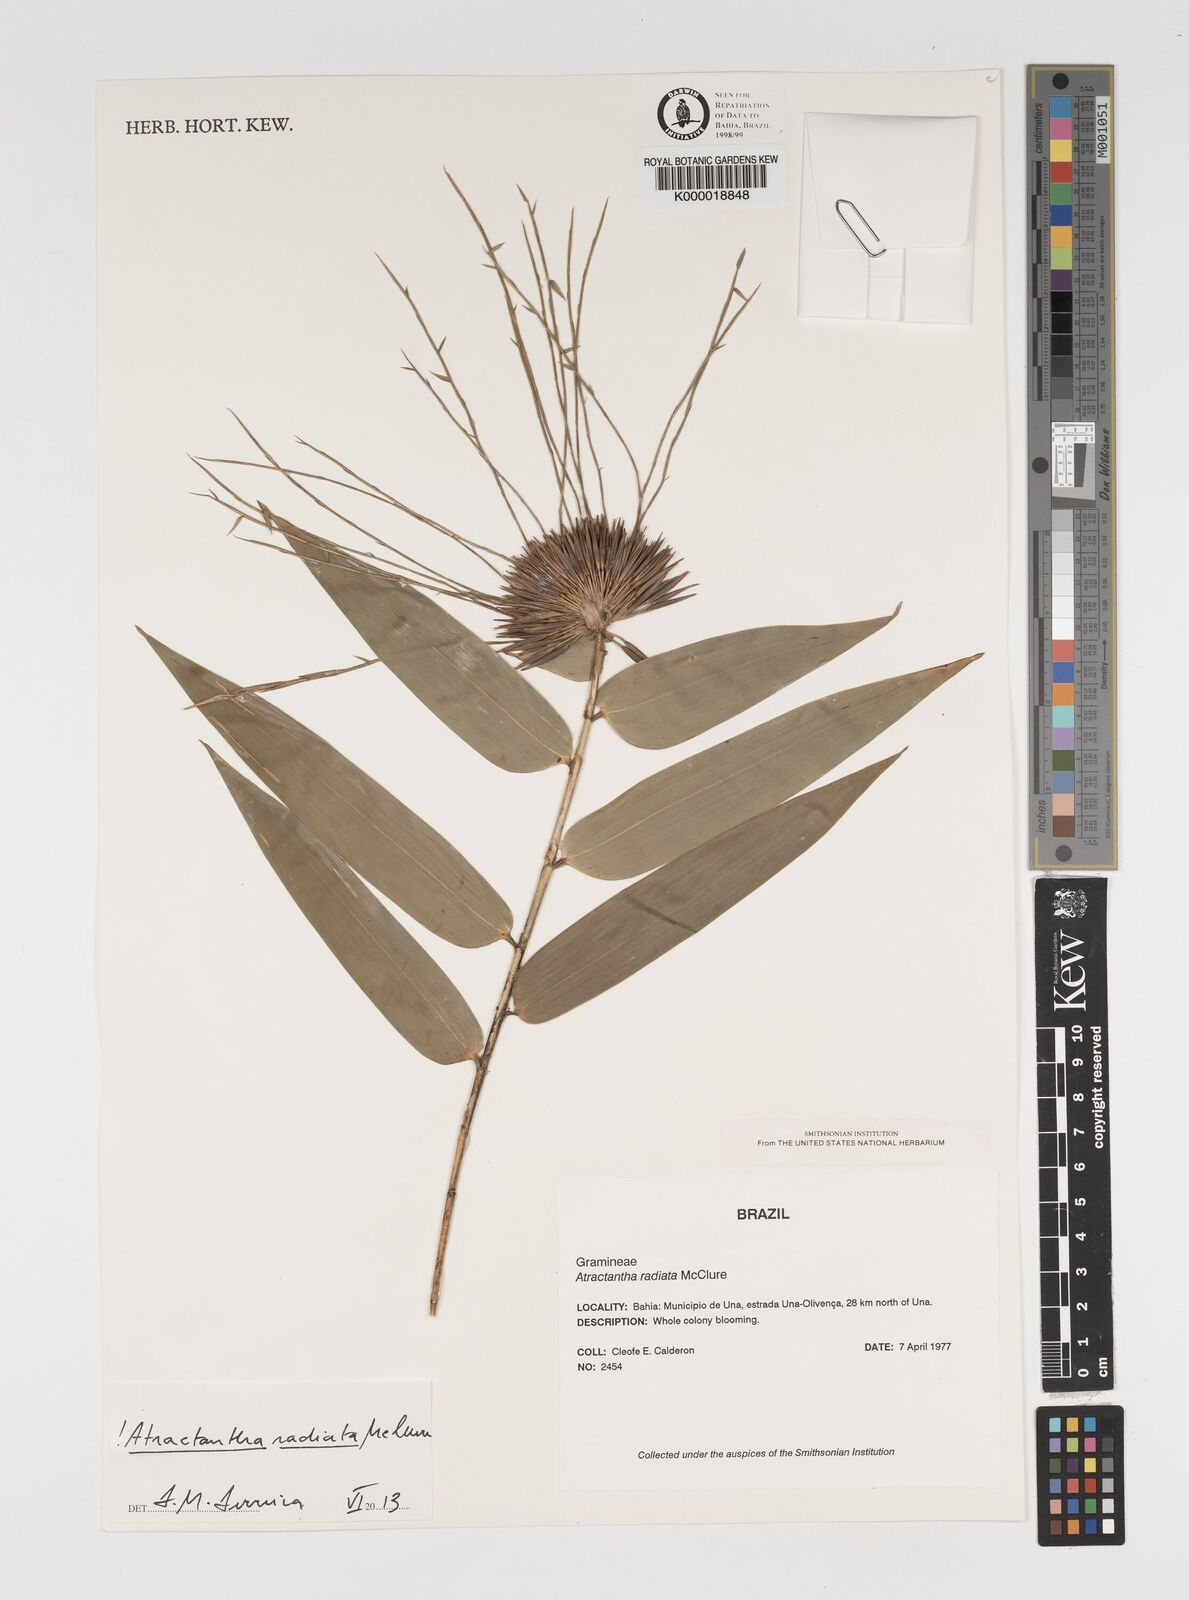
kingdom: Plantae
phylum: Tracheophyta
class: Liliopsida
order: Poales
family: Poaceae
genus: Atractantha
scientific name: Atractantha radiata
